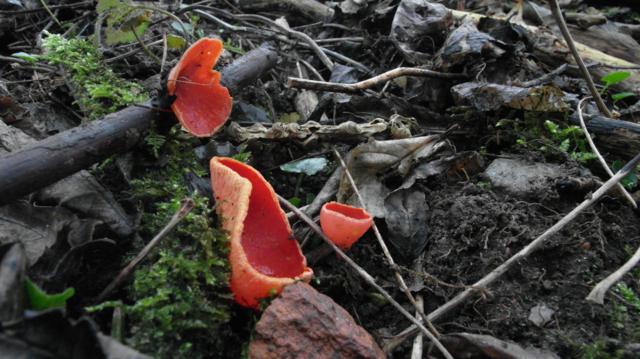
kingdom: Fungi
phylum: Ascomycota
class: Pezizomycetes
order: Pezizales
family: Sarcoscyphaceae
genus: Sarcoscypha
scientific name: Sarcoscypha austriaca
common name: krølhåret pragtbæger
